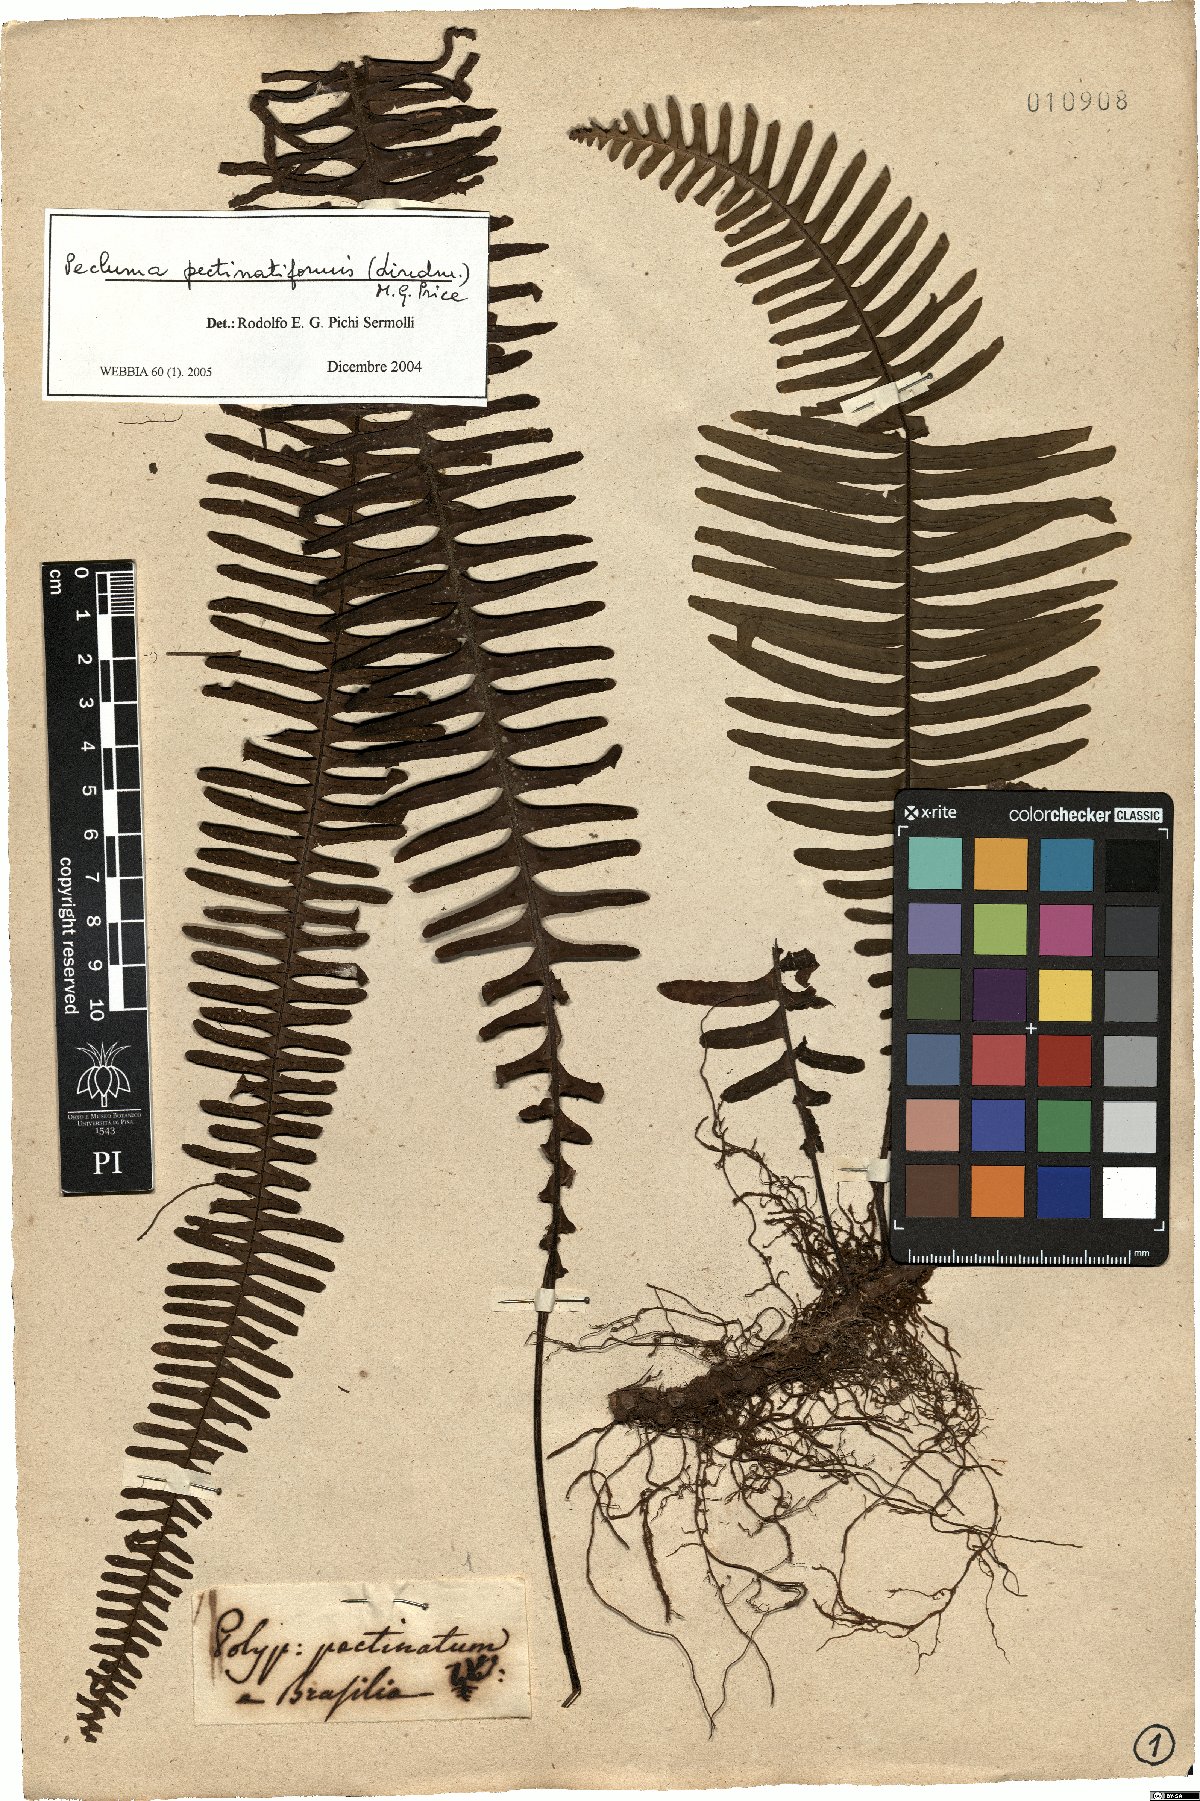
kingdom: Plantae
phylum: Tracheophyta
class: Polypodiopsida
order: Polypodiales
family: Polypodiaceae
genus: Pecluma
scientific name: Pecluma pectinatiformis
